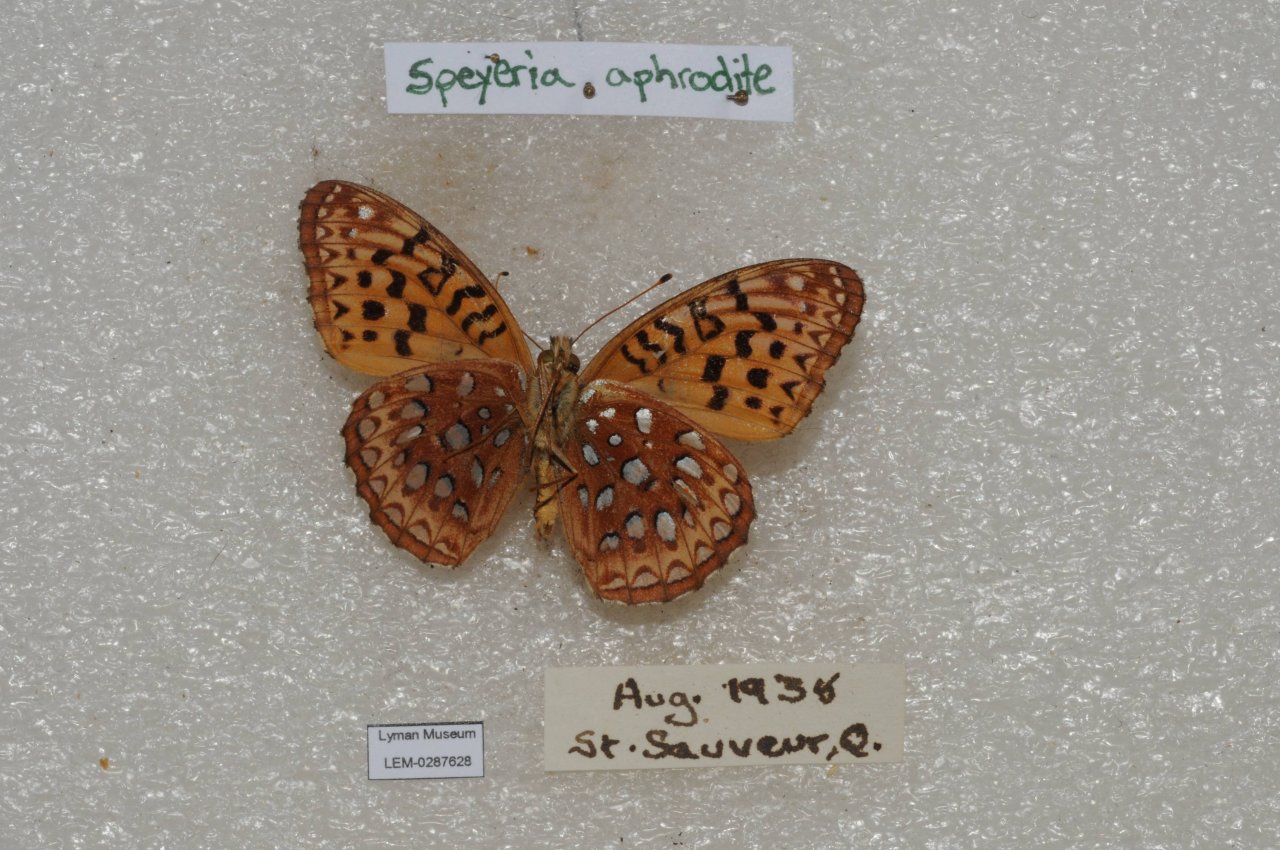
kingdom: Animalia
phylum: Arthropoda
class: Insecta
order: Lepidoptera
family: Nymphalidae
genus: Speyeria
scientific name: Speyeria aphrodite
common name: Aphrodite Fritillary
